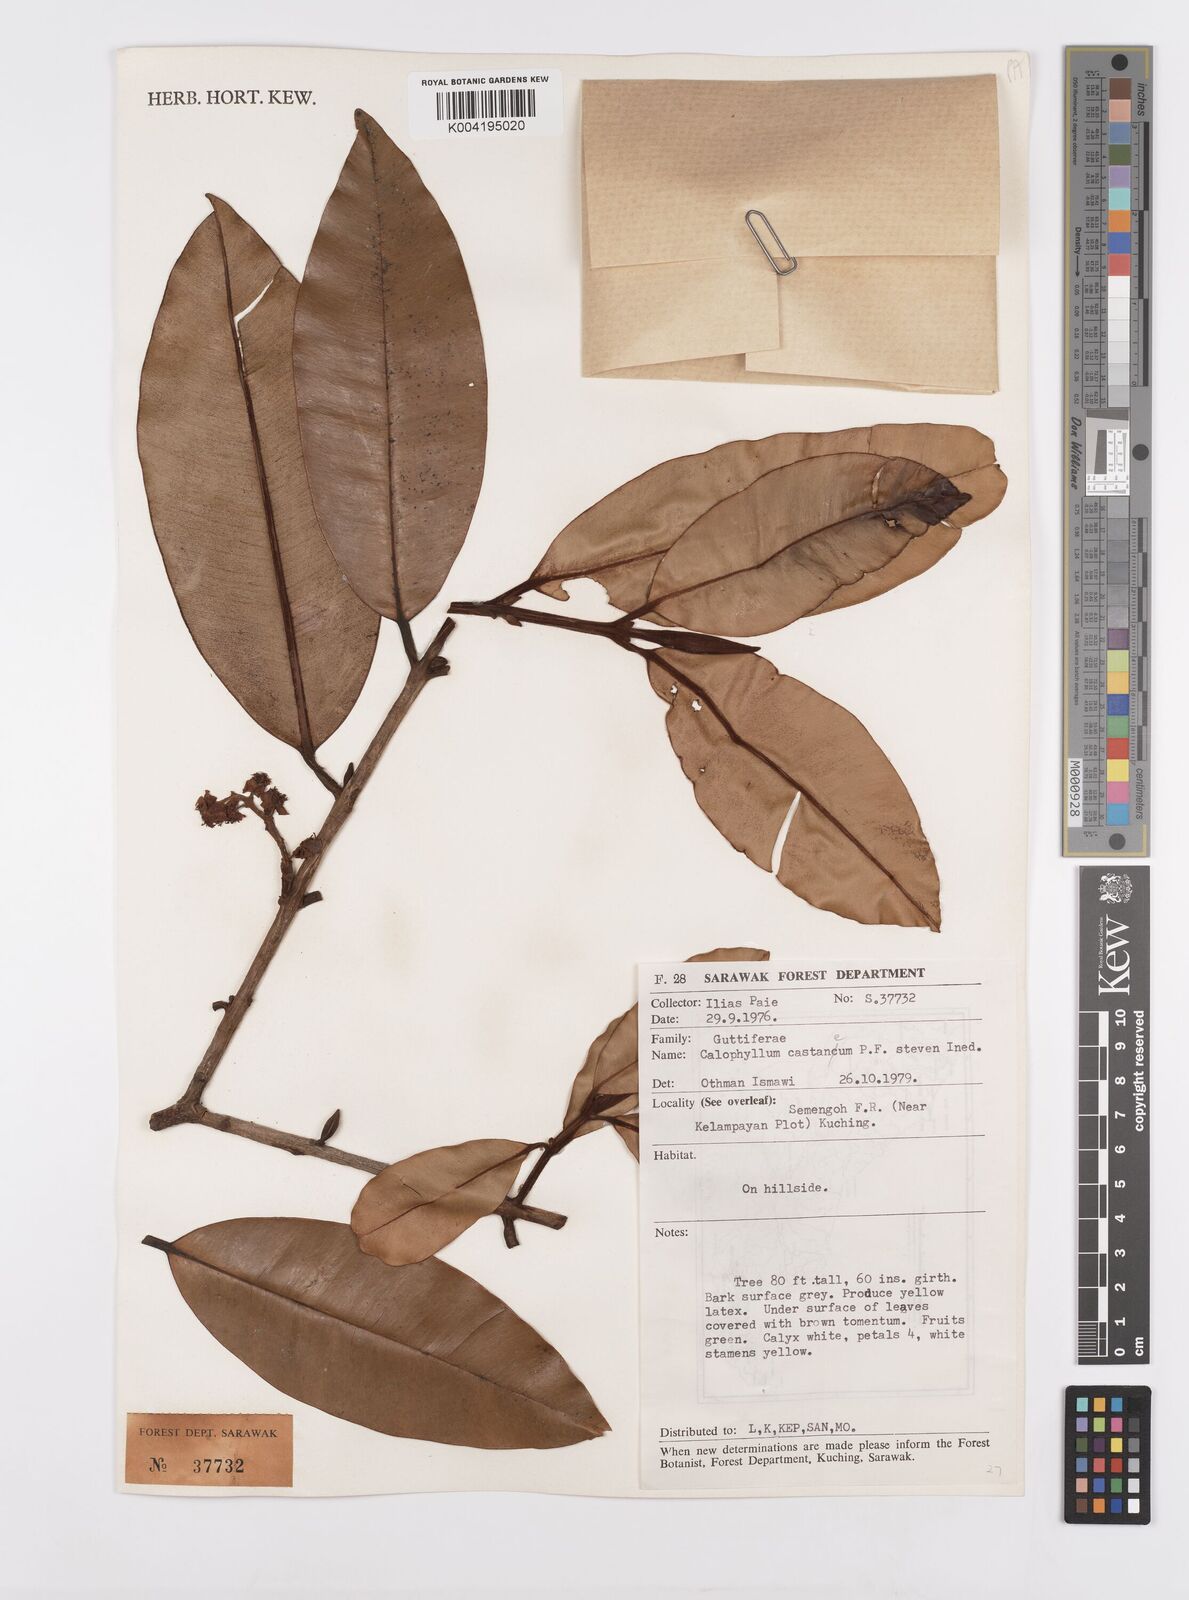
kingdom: Plantae
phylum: Tracheophyta
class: Magnoliopsida
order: Malpighiales
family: Calophyllaceae
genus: Calophyllum
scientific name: Calophyllum castaneum
